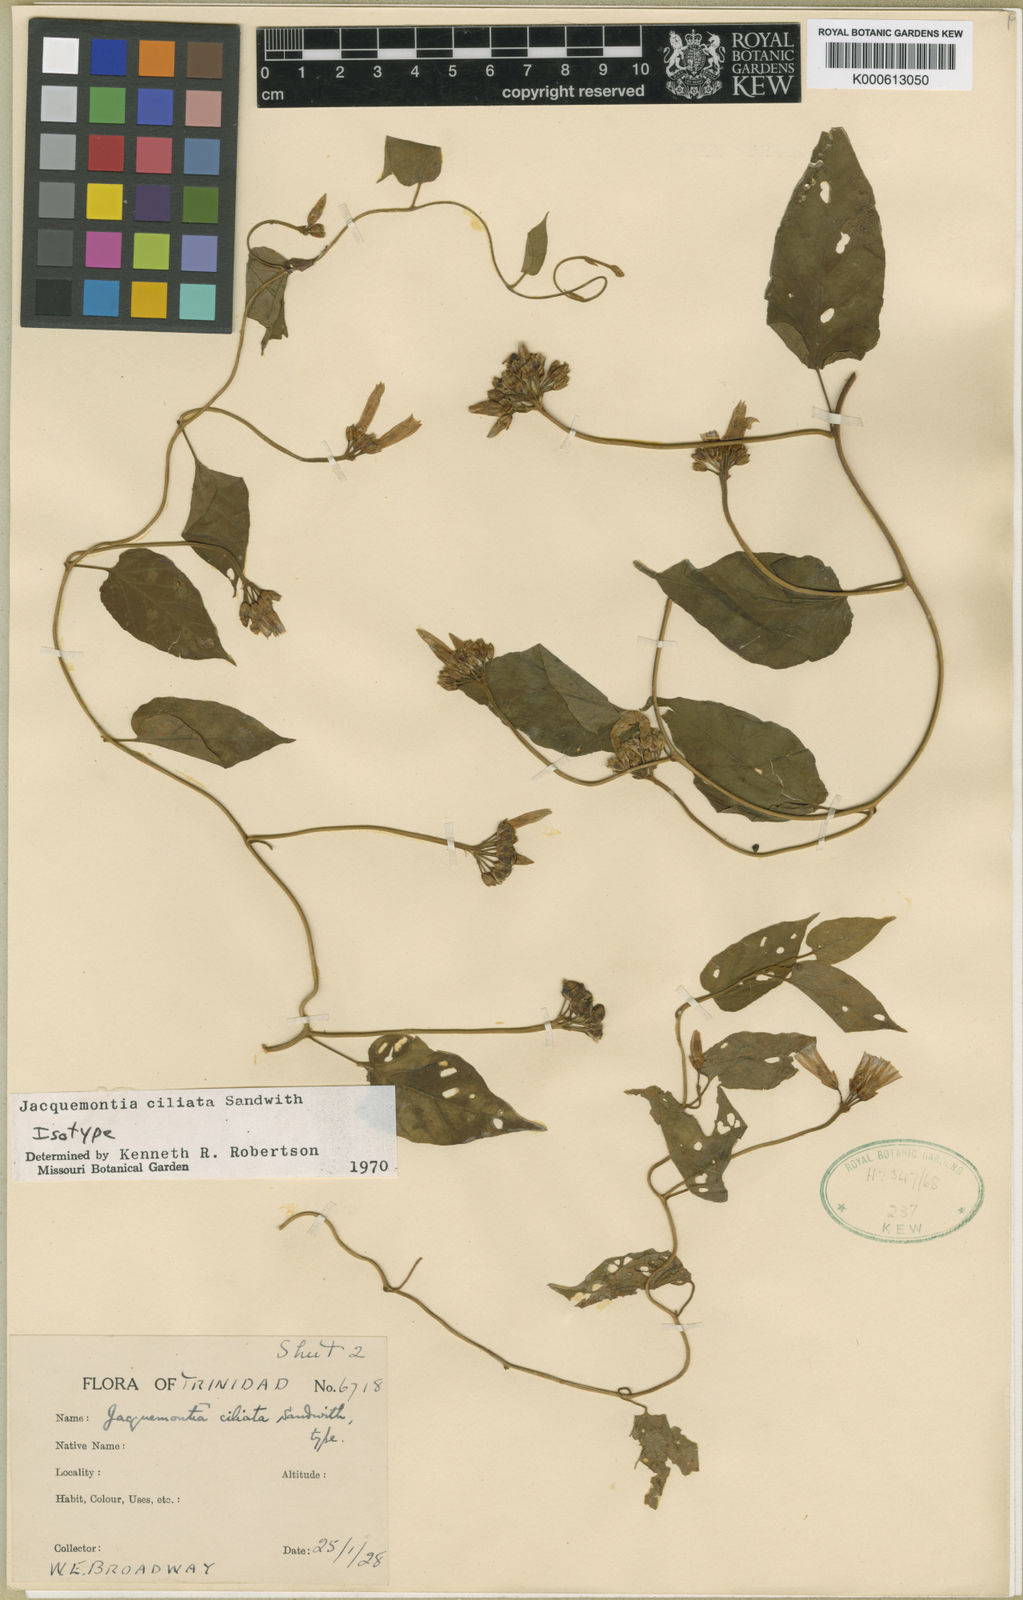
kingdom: Plantae
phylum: Tracheophyta
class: Magnoliopsida
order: Solanales
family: Convolvulaceae
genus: Jacquemontia
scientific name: Jacquemontia gabrielii
